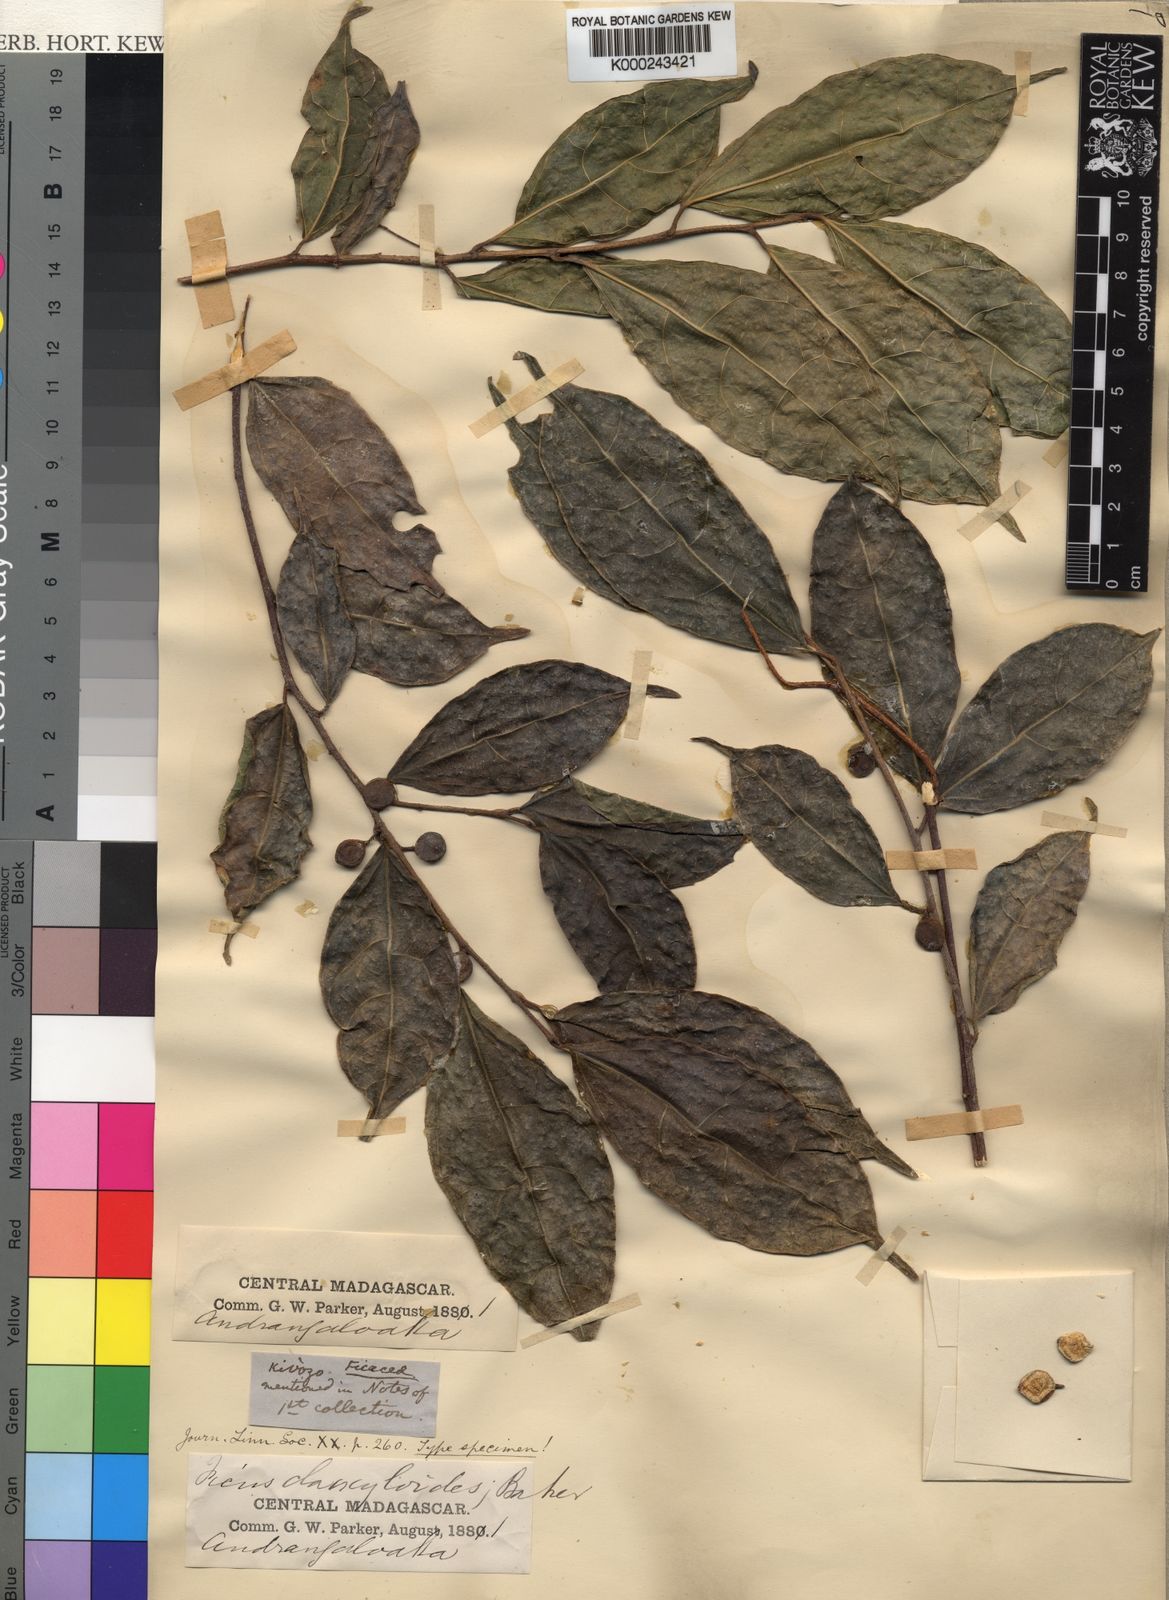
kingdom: Plantae
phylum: Tracheophyta
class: Magnoliopsida
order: Rosales
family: Moraceae
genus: Ficus
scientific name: Ficus exasperata
